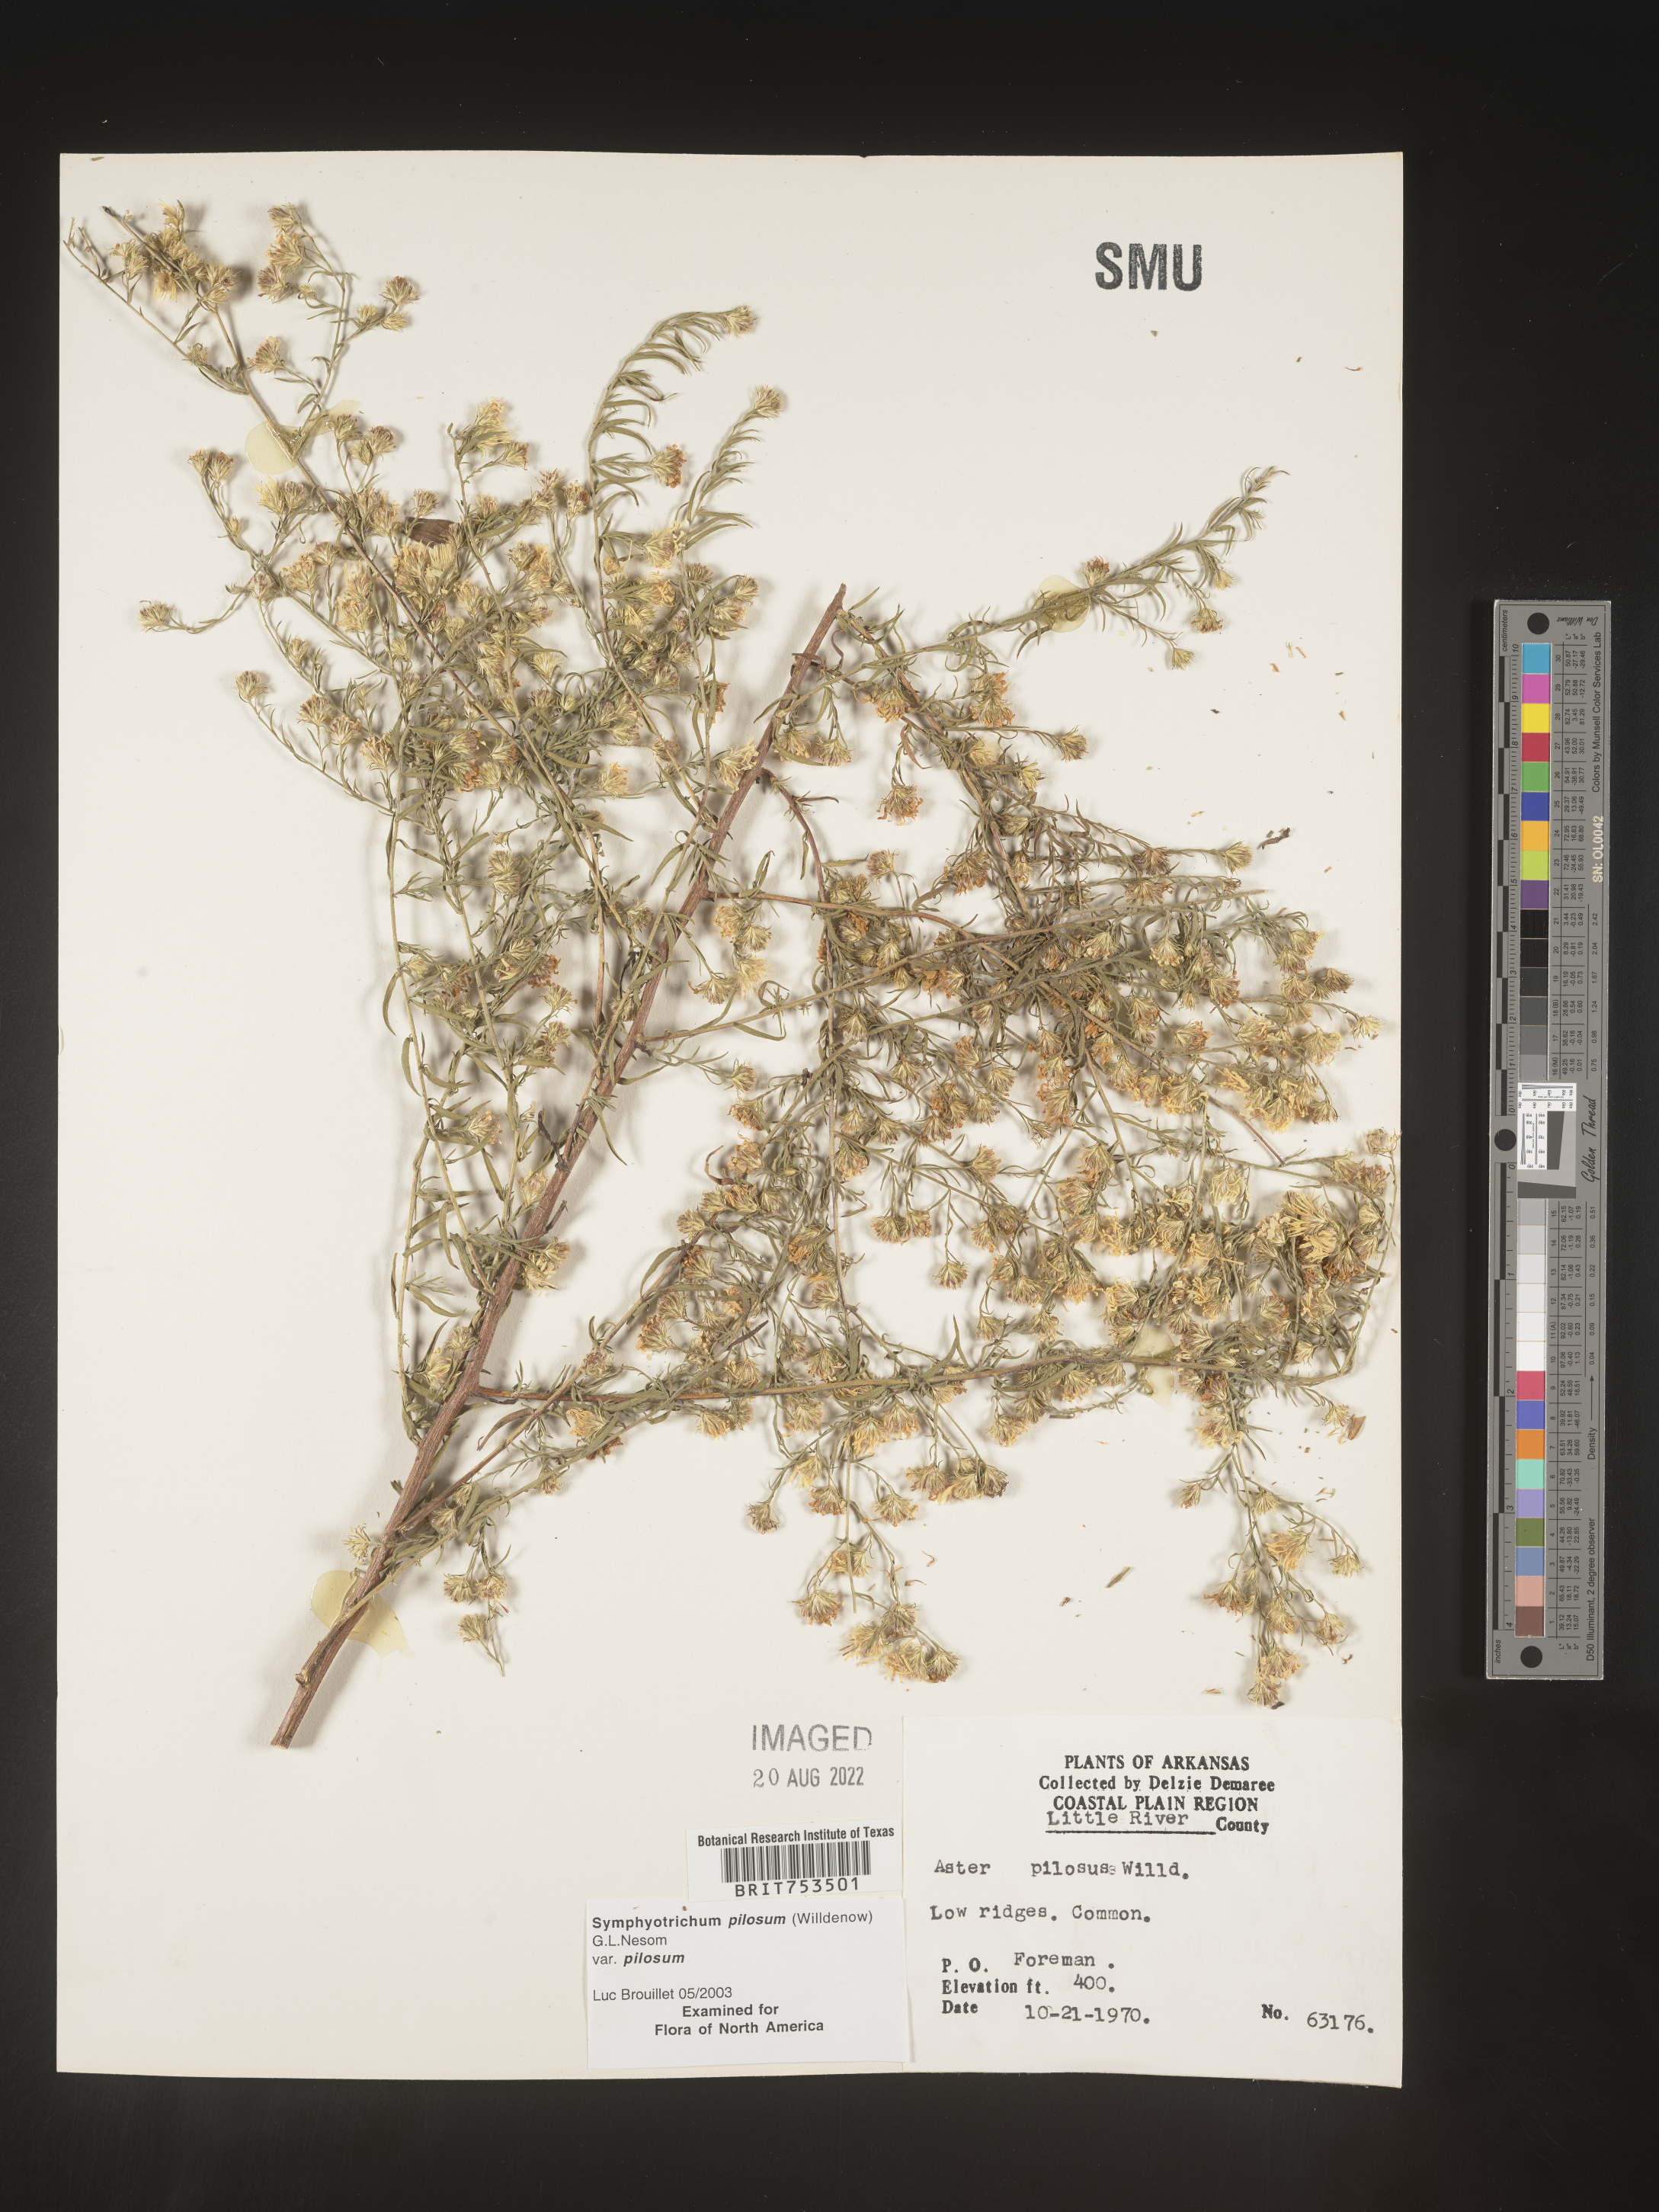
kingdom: Plantae
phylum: Tracheophyta
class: Magnoliopsida
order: Asterales
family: Asteraceae
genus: Symphyotrichum
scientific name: Symphyotrichum pilosum
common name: Awl aster
